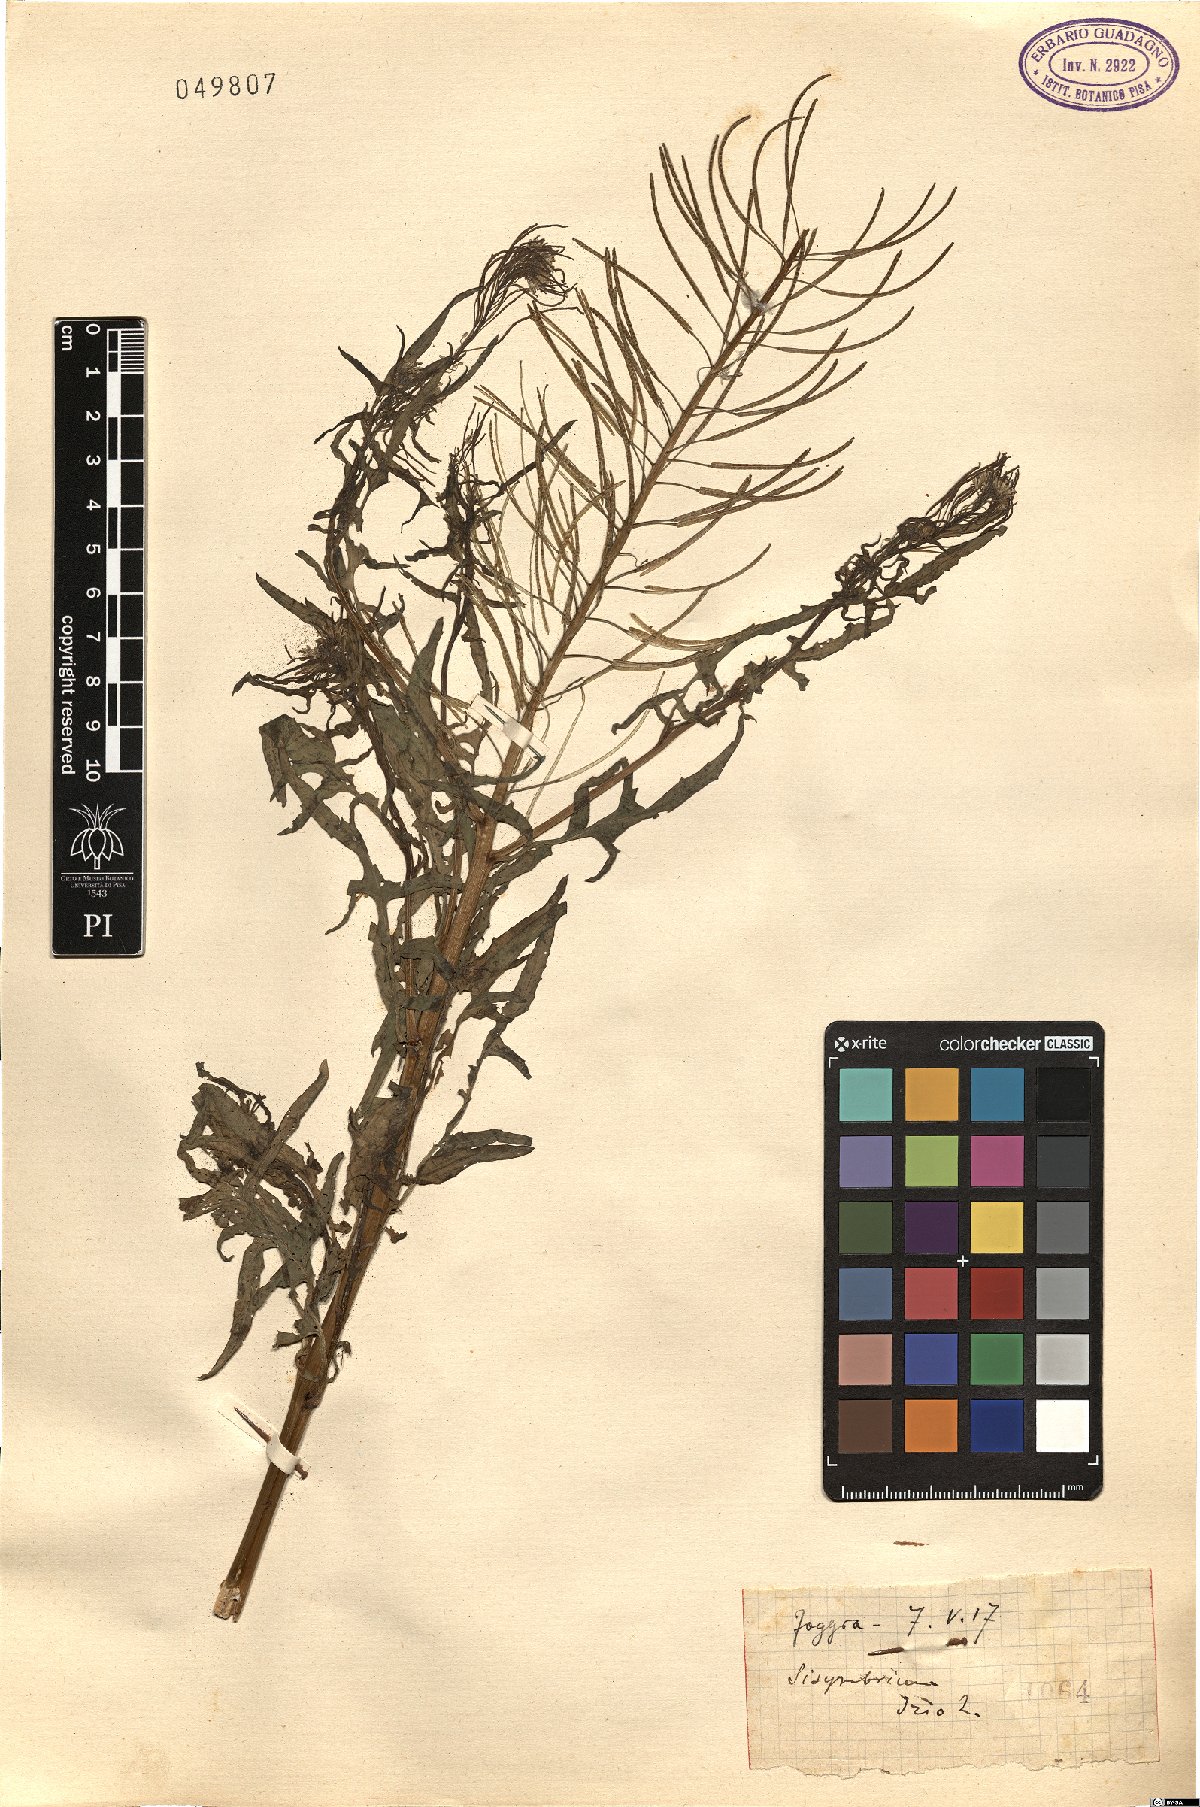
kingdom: Plantae
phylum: Tracheophyta
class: Magnoliopsida
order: Brassicales
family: Brassicaceae
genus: Sisymbrium
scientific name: Sisymbrium irio
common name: London rocket
